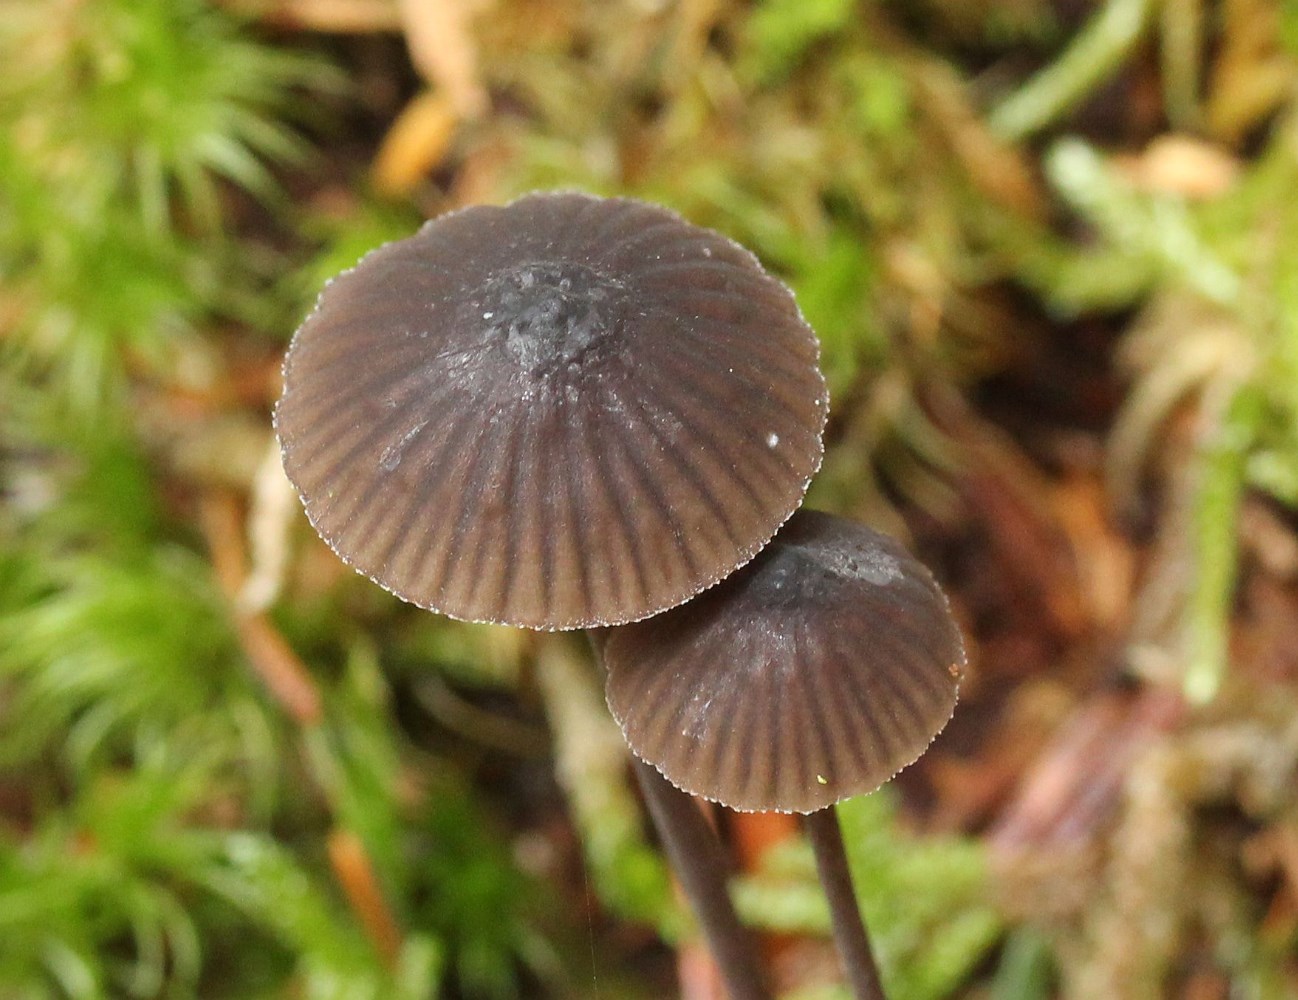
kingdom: Fungi
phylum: Basidiomycota
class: Agaricomycetes
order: Agaricales
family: Mycenaceae
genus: Mycena
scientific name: Mycena galopus
